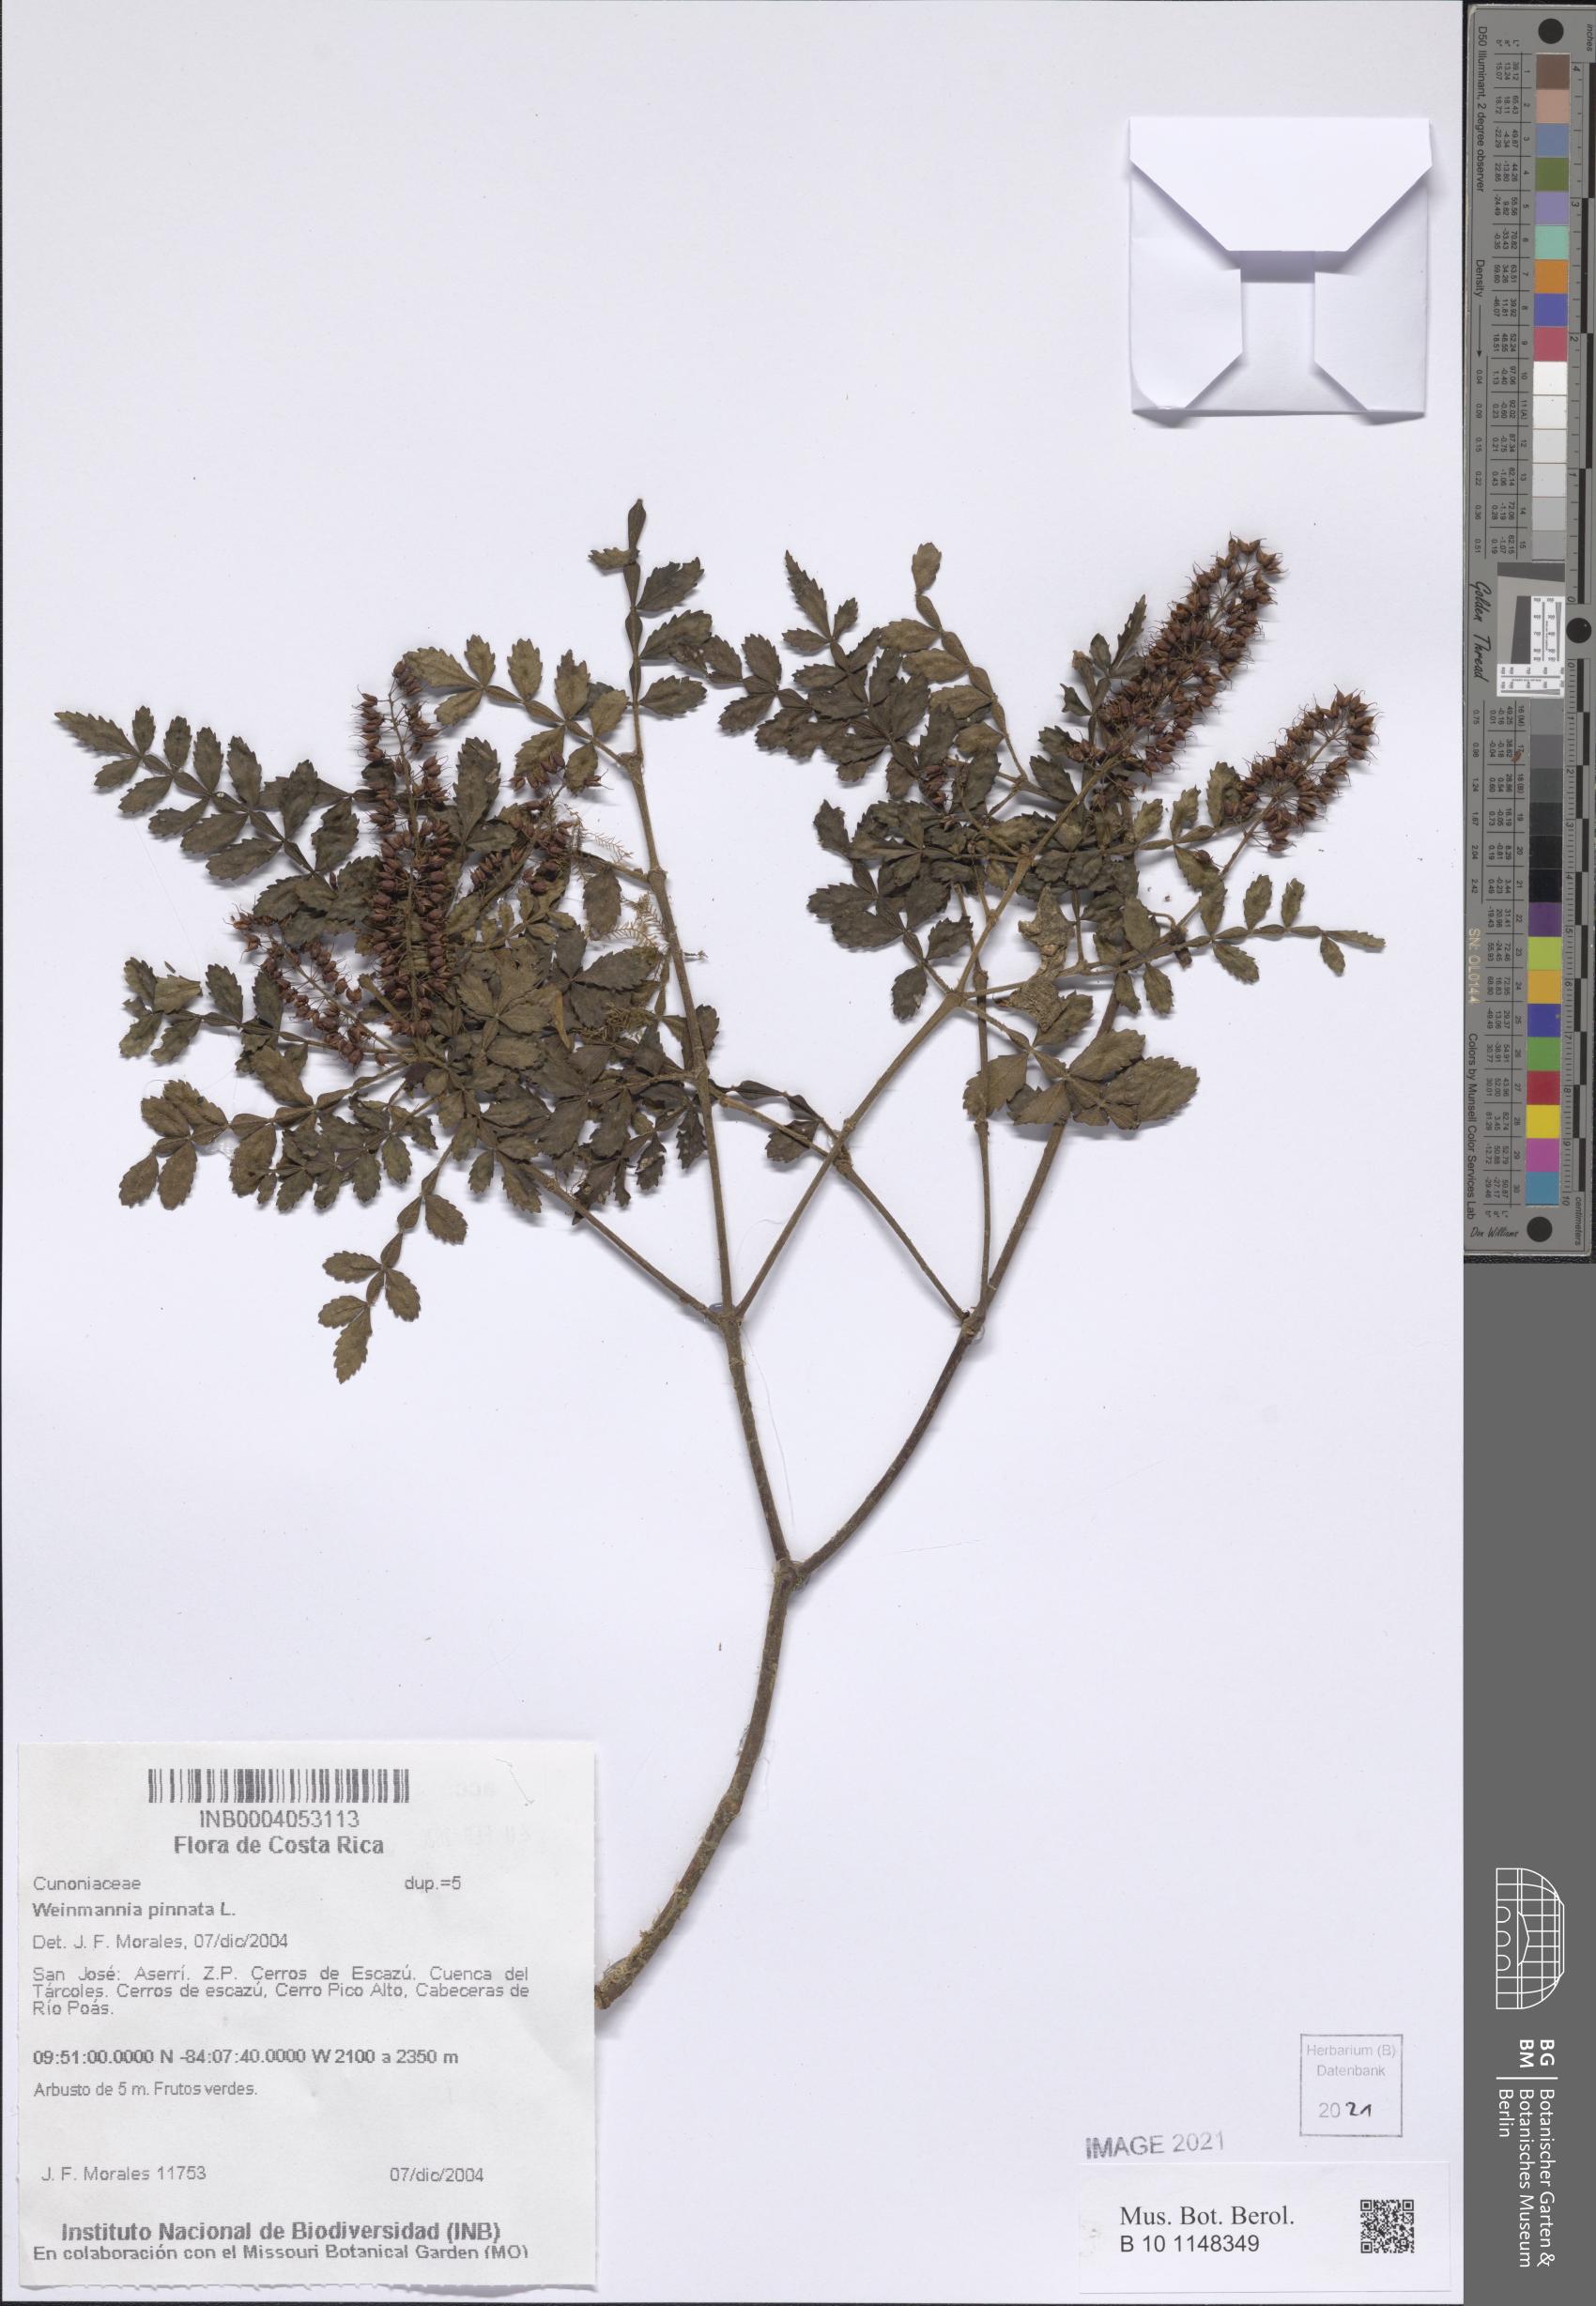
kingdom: Plantae
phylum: Tracheophyta
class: Magnoliopsida
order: Oxalidales
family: Cunoniaceae
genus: Weinmannia
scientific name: Weinmannia pinnata
